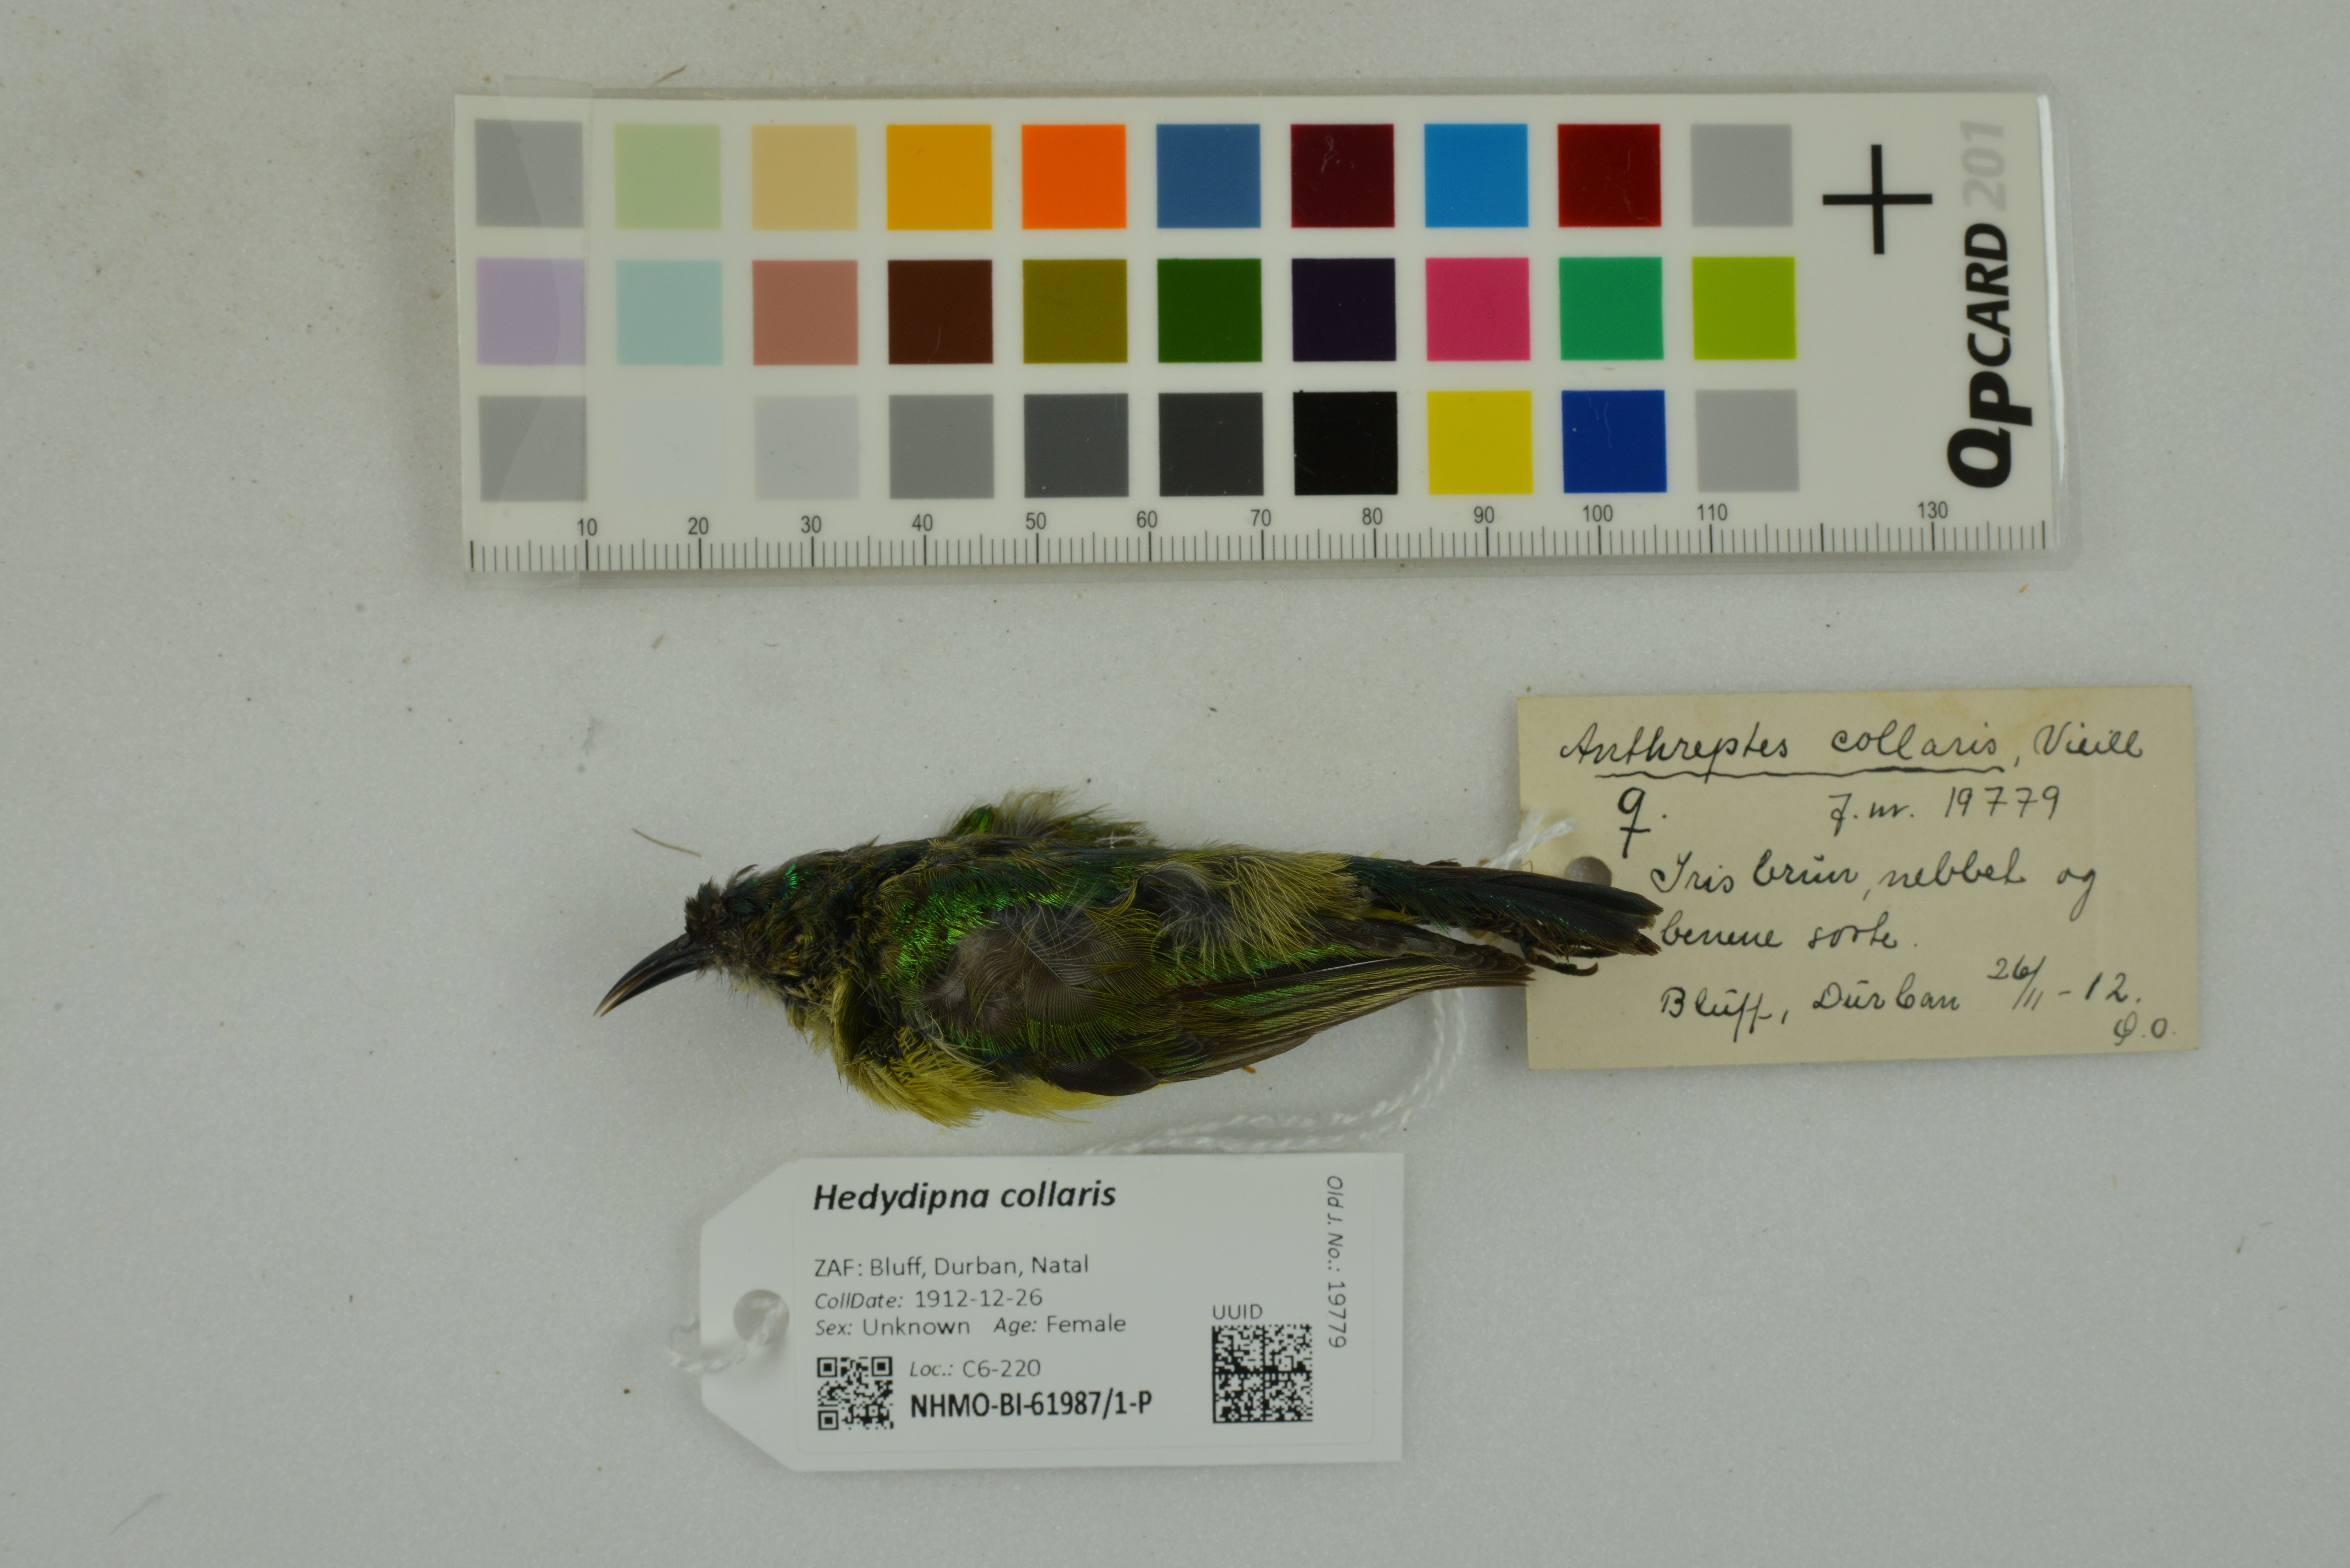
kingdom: Animalia
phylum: Chordata
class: Aves
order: Passeriformes
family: Nectariniidae
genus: Hedydipna
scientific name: Hedydipna collaris
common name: Collared sunbird
